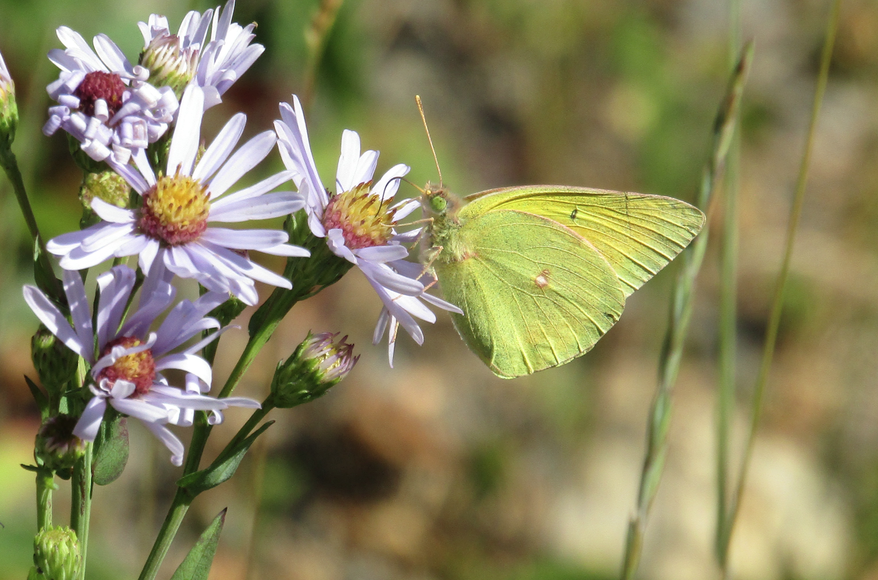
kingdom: Animalia
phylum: Arthropoda
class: Insecta
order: Lepidoptera
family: Pieridae
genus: Colias
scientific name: Colias christina
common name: Christina Sulphur
